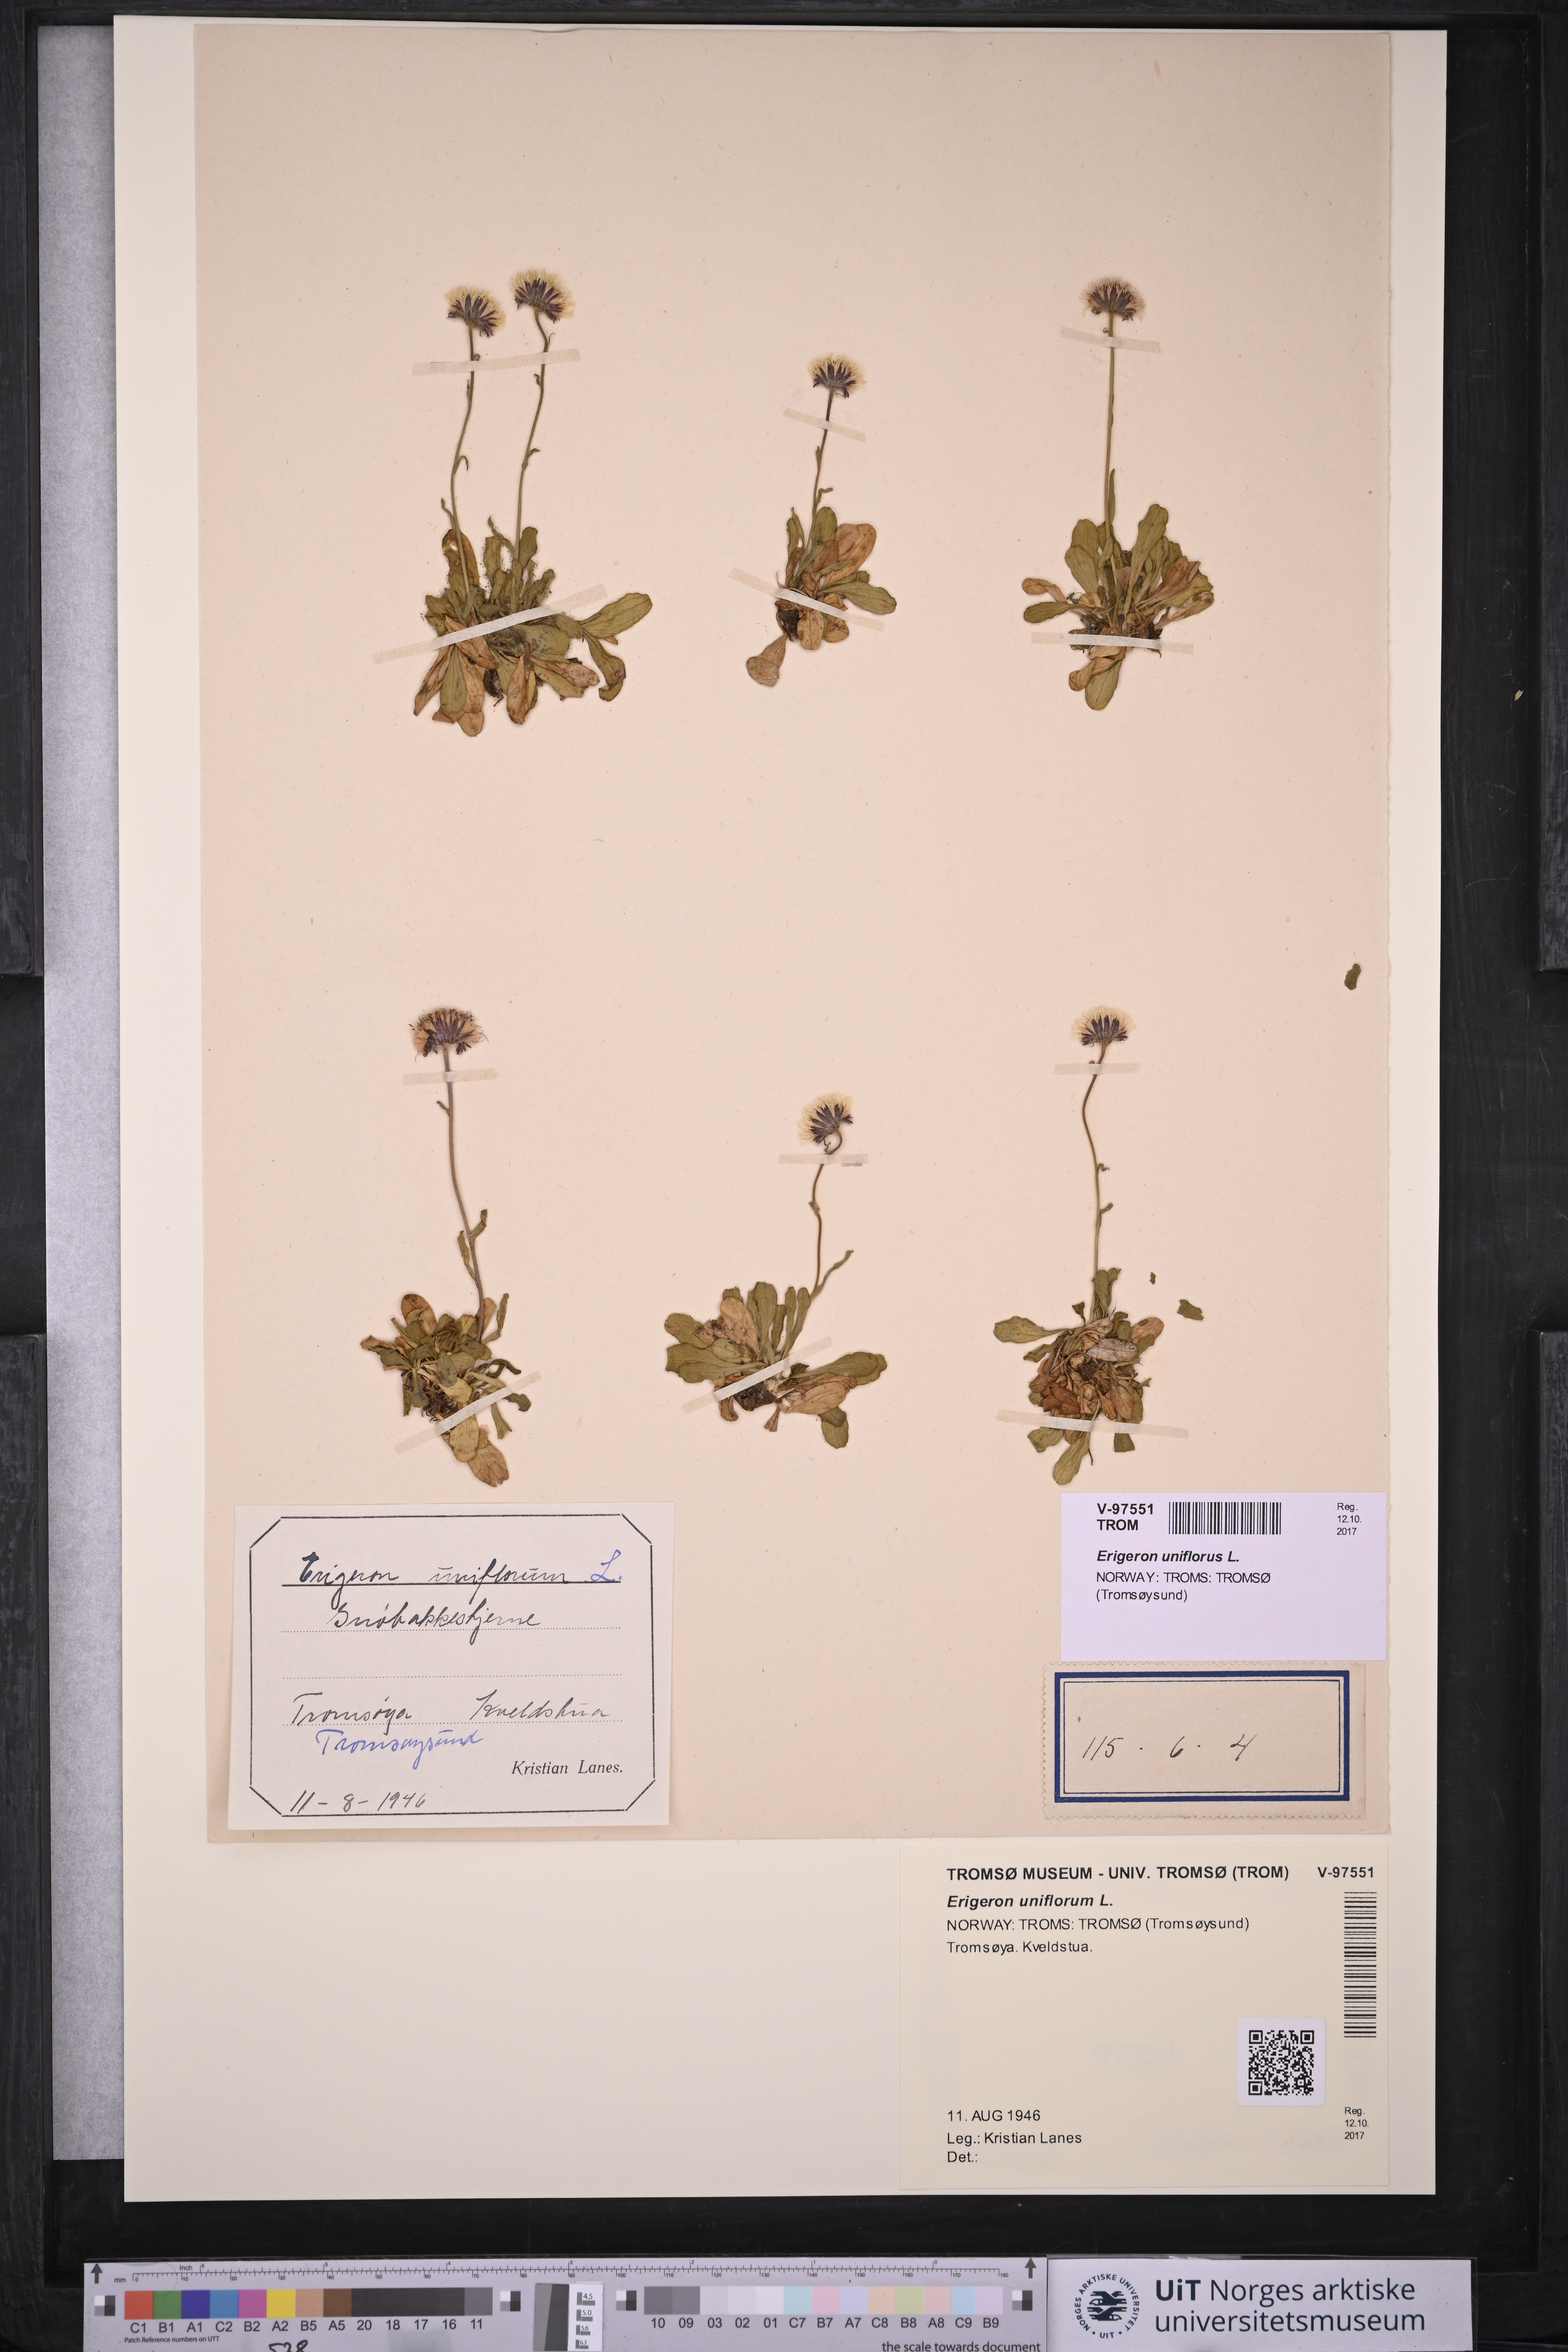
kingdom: Plantae
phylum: Tracheophyta
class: Magnoliopsida
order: Asterales
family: Asteraceae
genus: Erigeron
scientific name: Erigeron uniflorus
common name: Northern daisy
